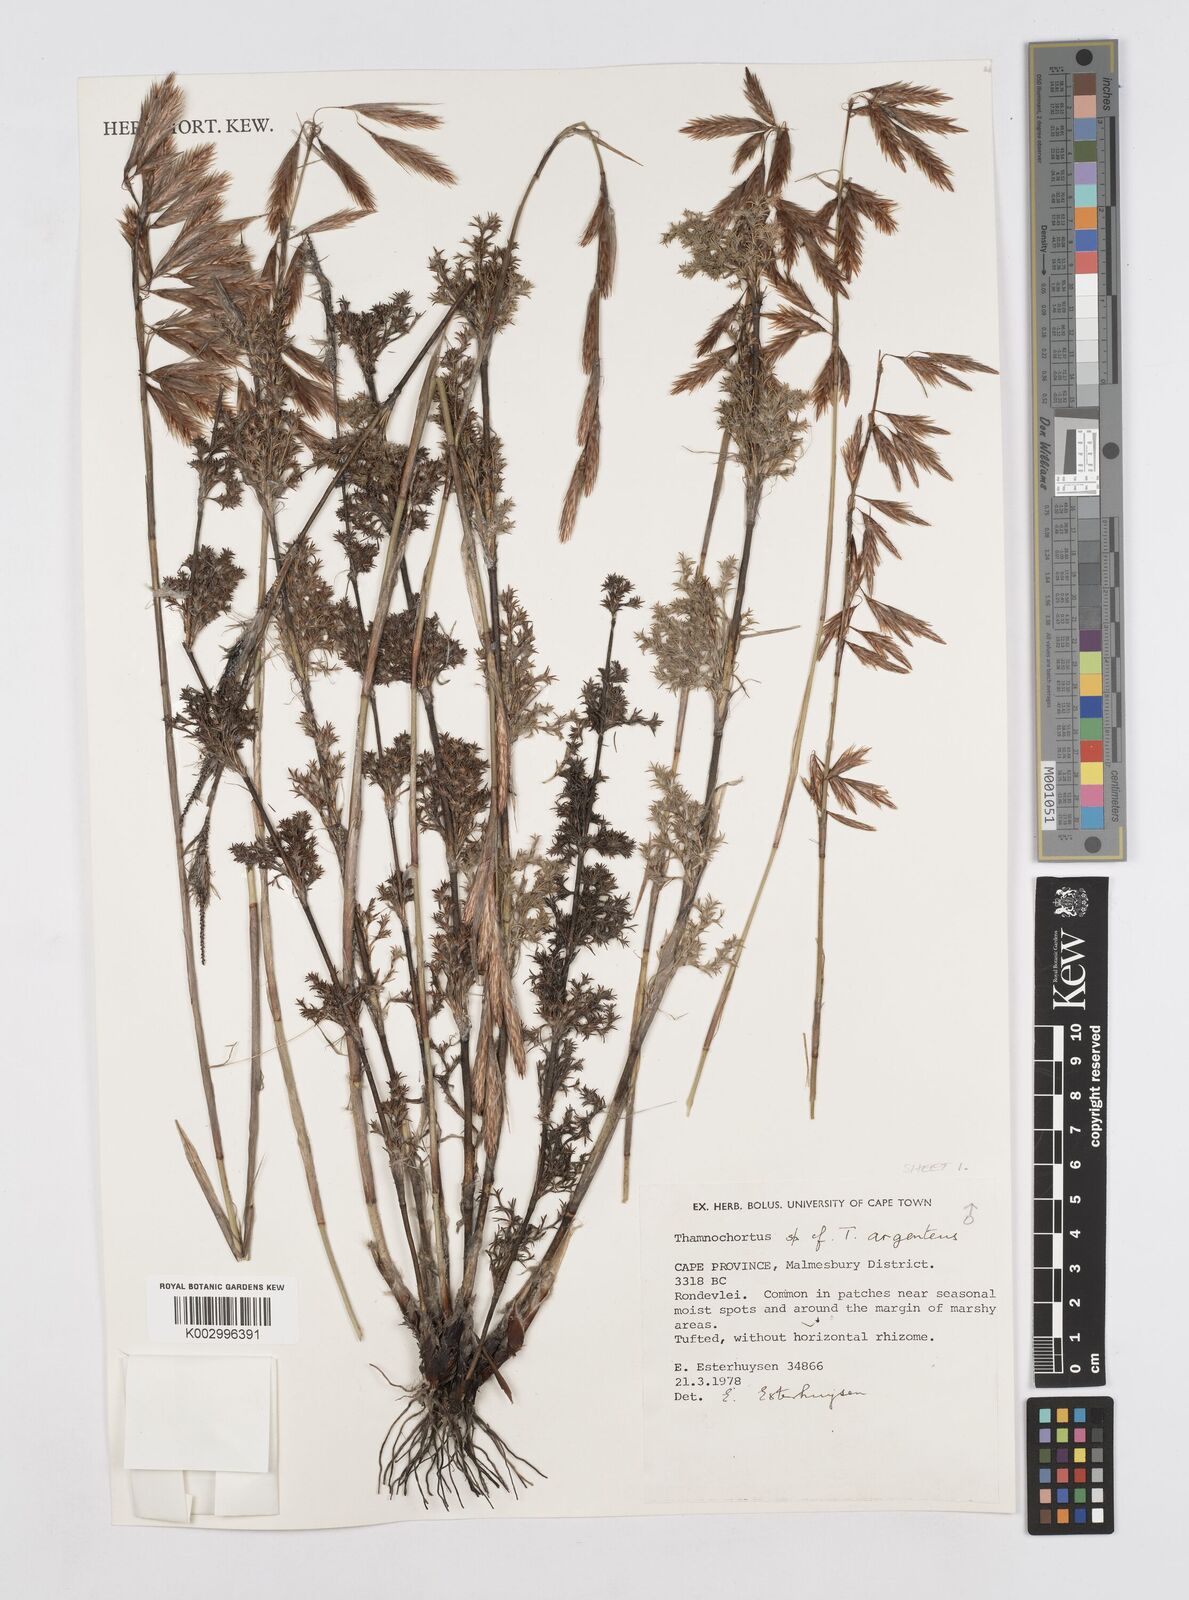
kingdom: Plantae
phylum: Tracheophyta
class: Liliopsida
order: Poales
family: Restionaceae
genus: Hypodiscus
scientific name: Hypodiscus argenteus
